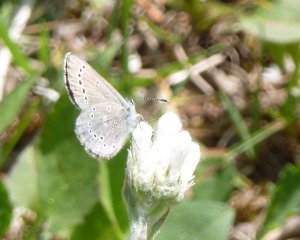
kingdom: Animalia
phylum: Arthropoda
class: Insecta
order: Lepidoptera
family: Lycaenidae
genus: Glaucopsyche
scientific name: Glaucopsyche lygdamus
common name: Silvery Blue
